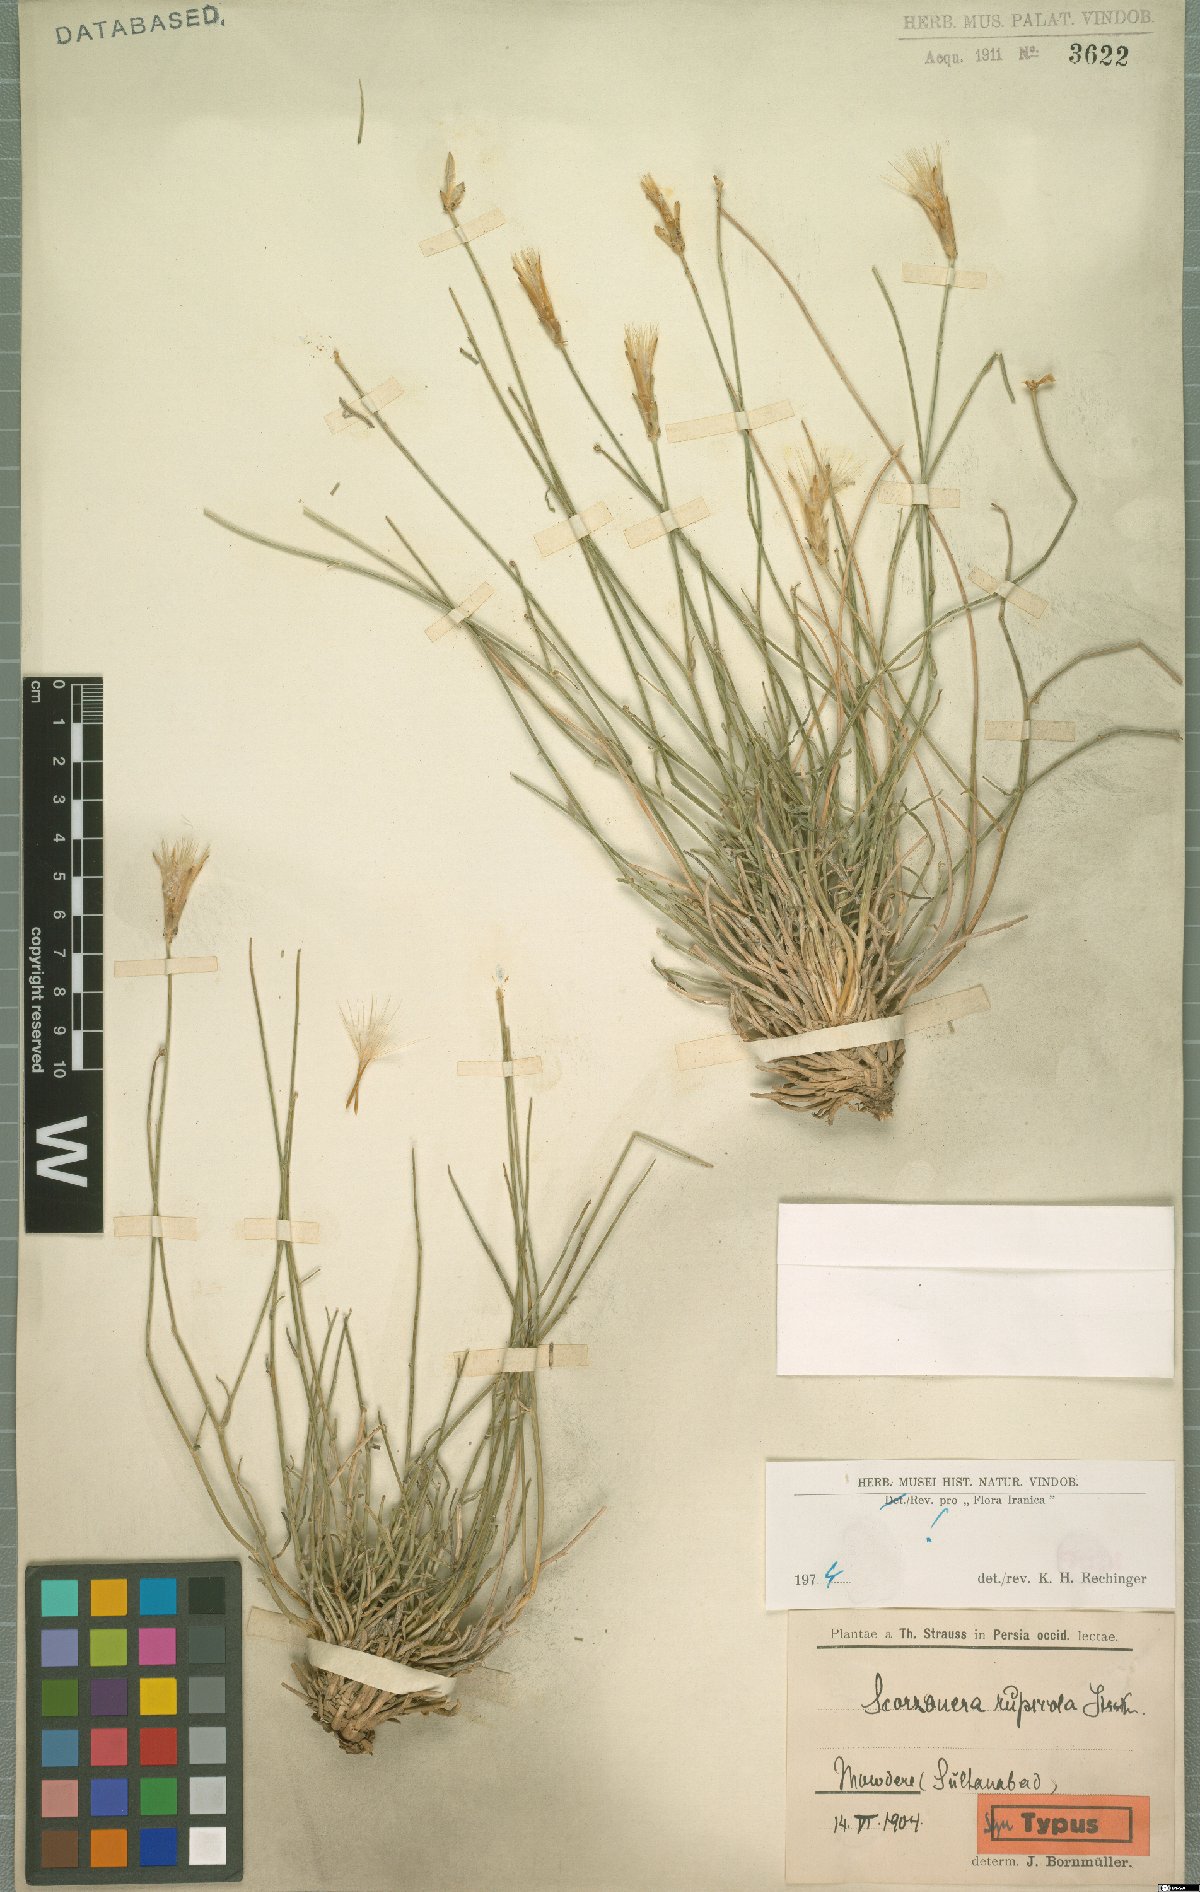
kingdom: Plantae
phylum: Tracheophyta
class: Magnoliopsida
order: Asterales
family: Asteraceae
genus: Scorzonera
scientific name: Scorzonera rupicola
